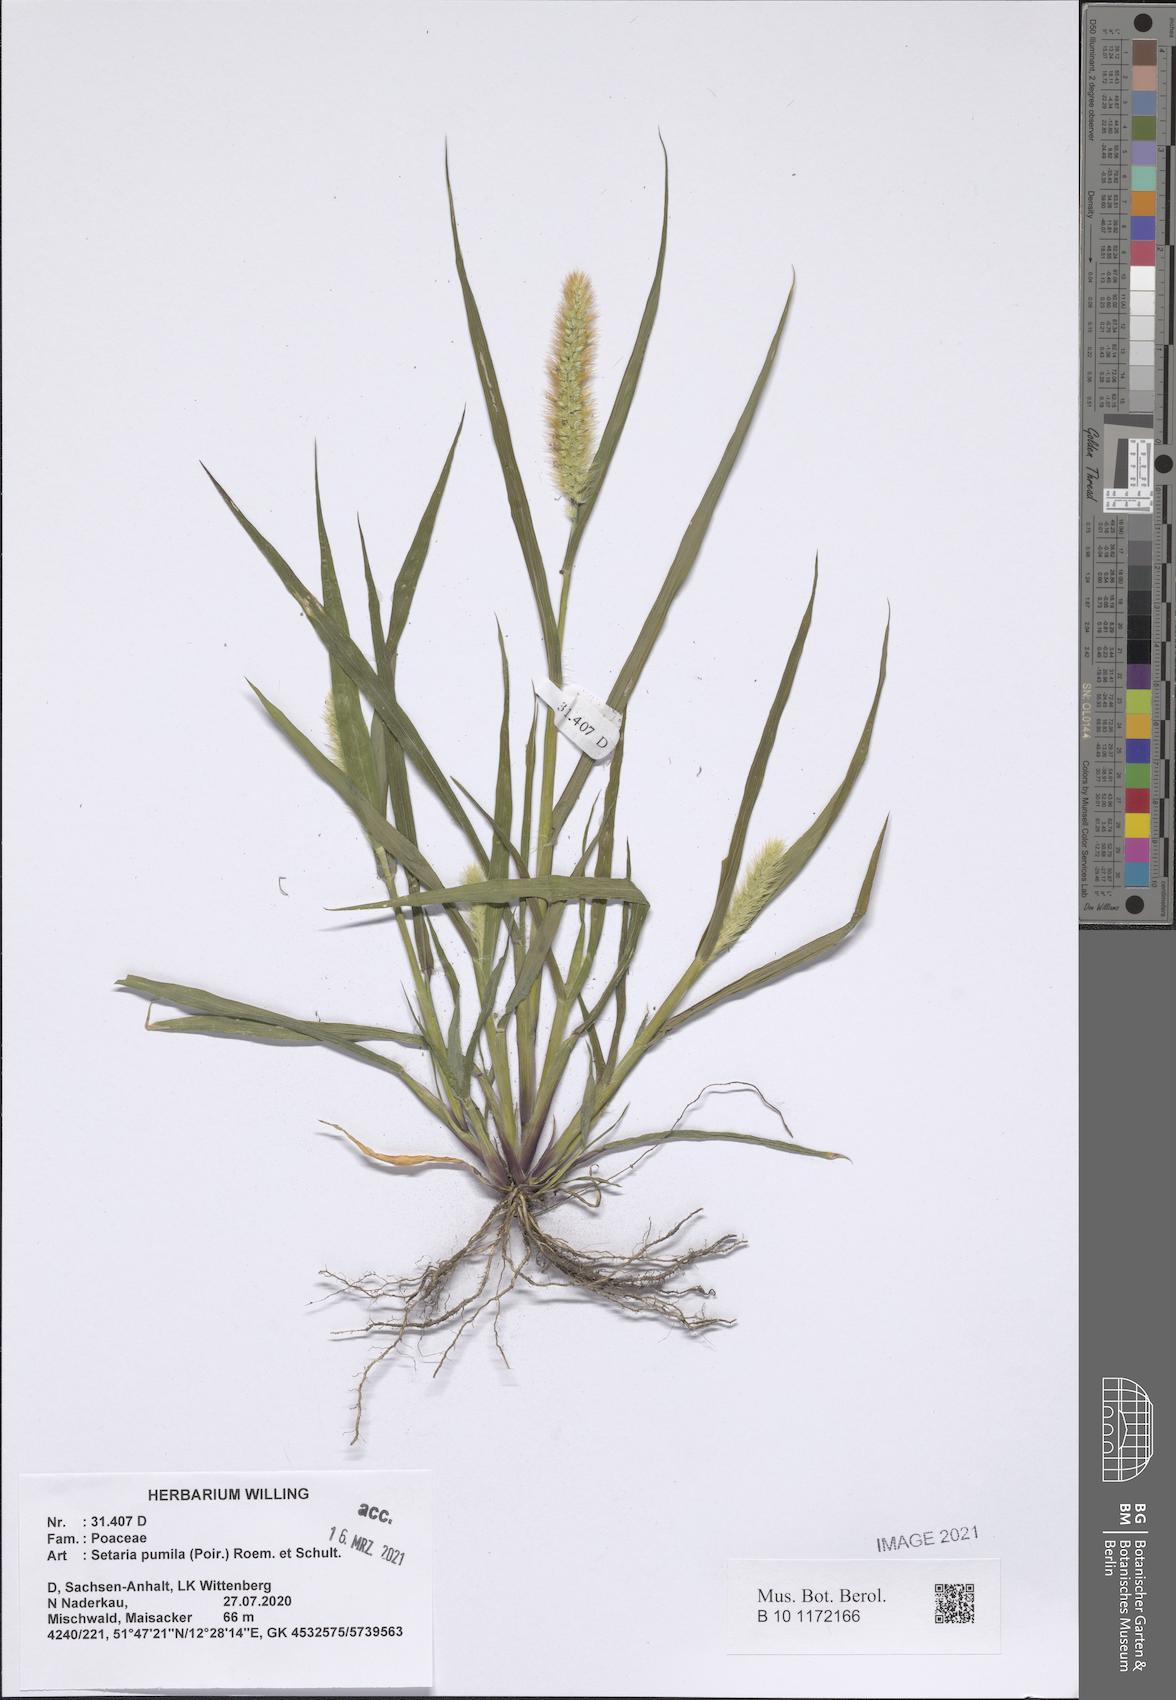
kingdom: Plantae
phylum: Tracheophyta
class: Liliopsida
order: Poales
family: Poaceae
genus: Setaria
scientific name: Setaria pumila
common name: Yellow bristle-grass
